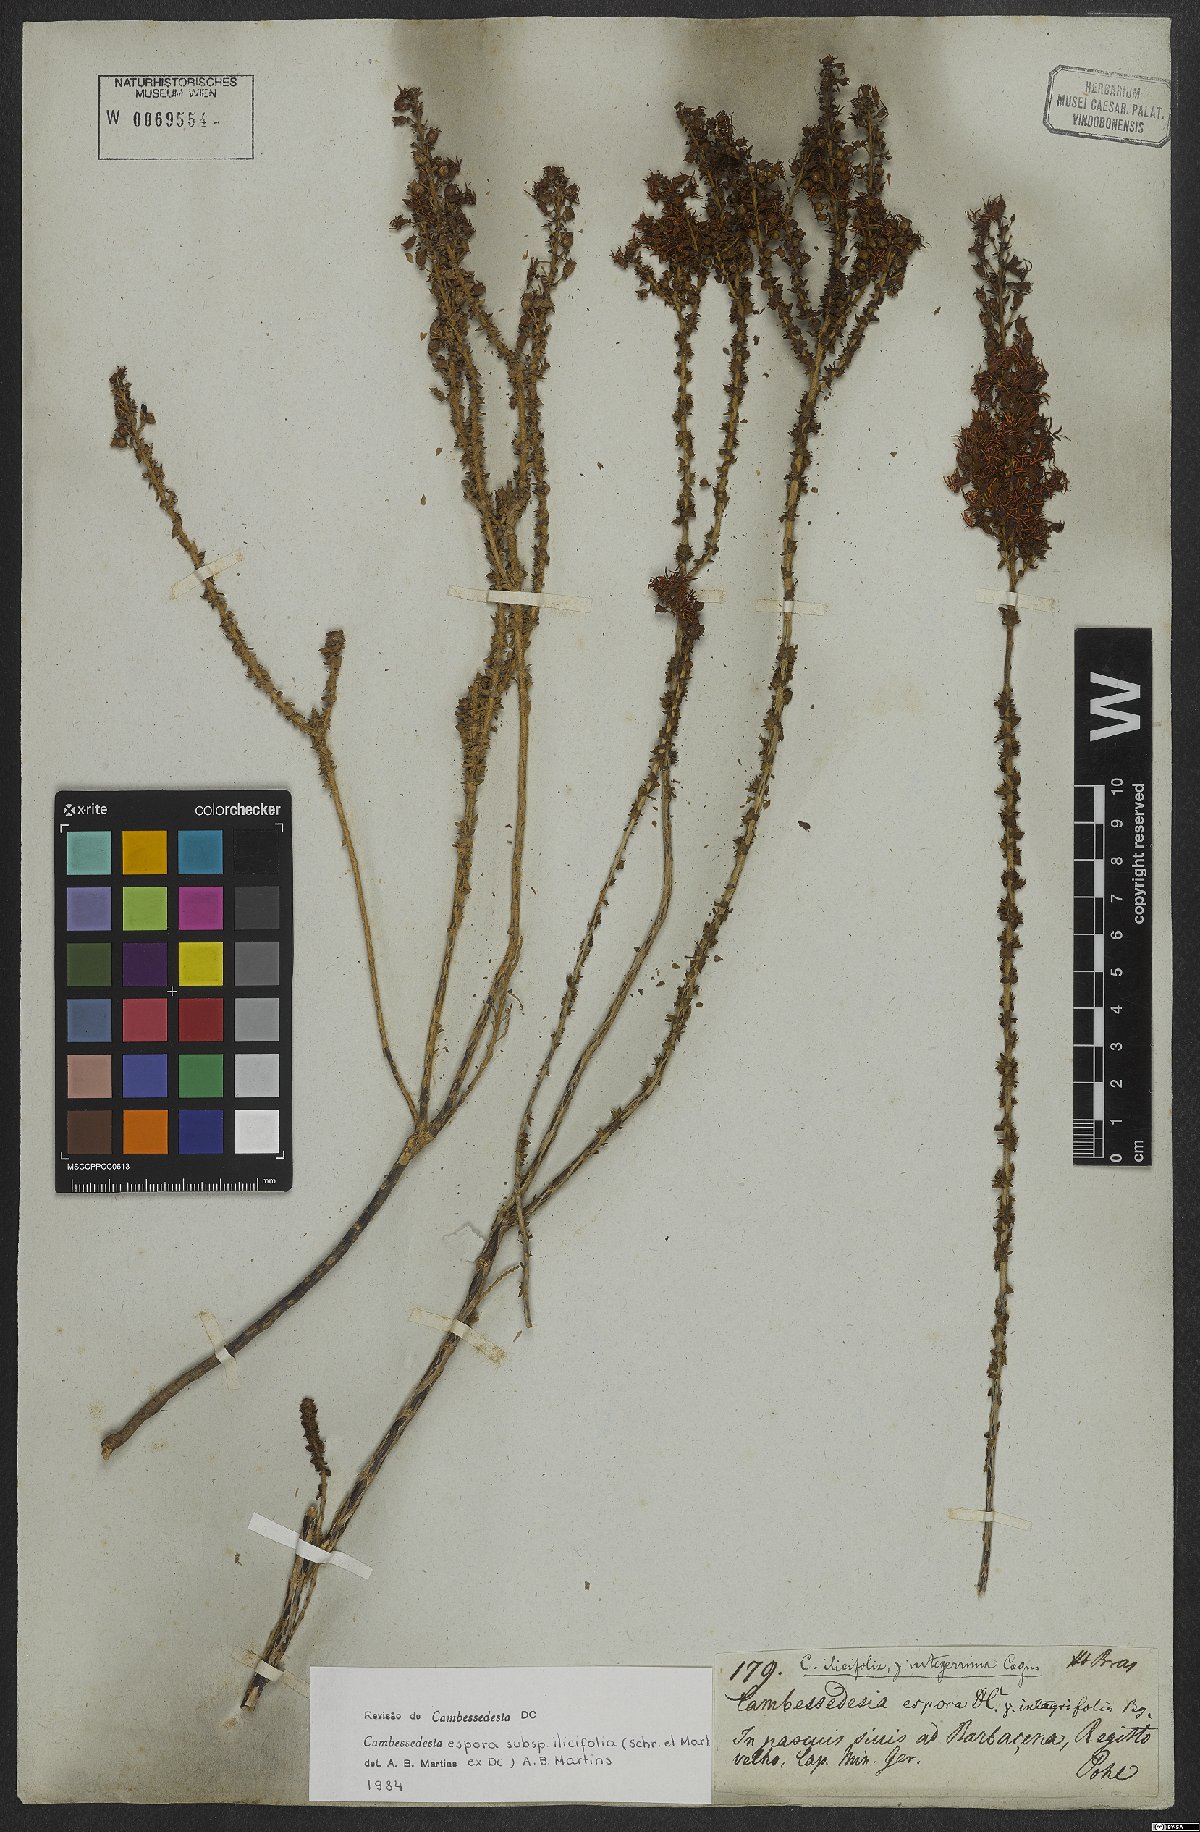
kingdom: Plantae
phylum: Tracheophyta
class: Magnoliopsida
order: Myrtales
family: Melastomataceae
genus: Cambessedesia
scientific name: Cambessedesia espora
